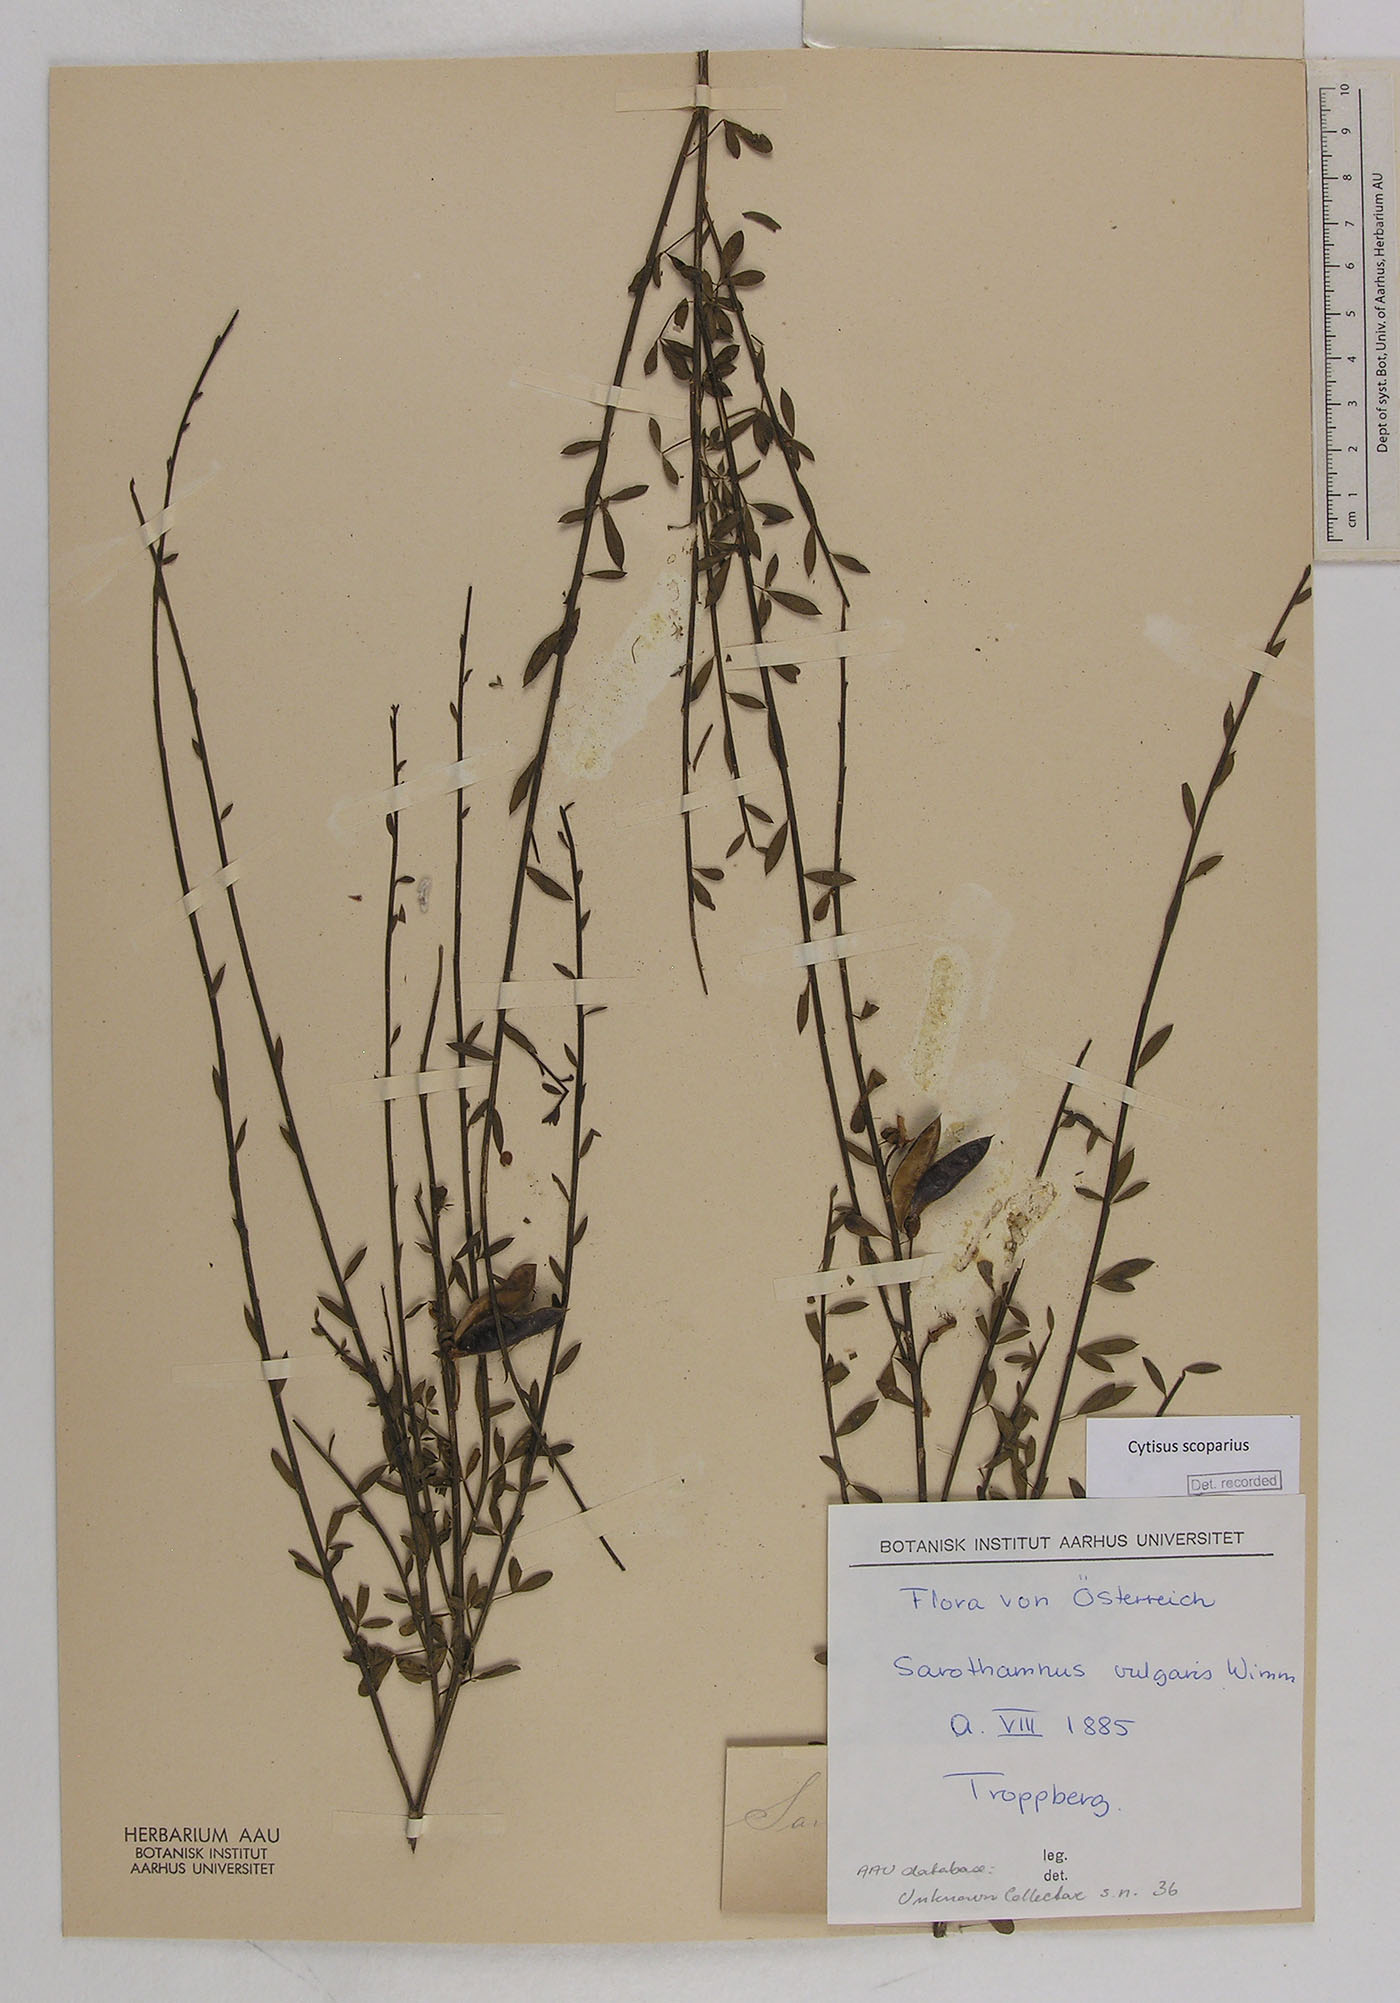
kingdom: Plantae
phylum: Tracheophyta
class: Magnoliopsida
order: Fabales
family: Fabaceae
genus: Cytisus
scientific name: Cytisus scoparius
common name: Scotch broom
